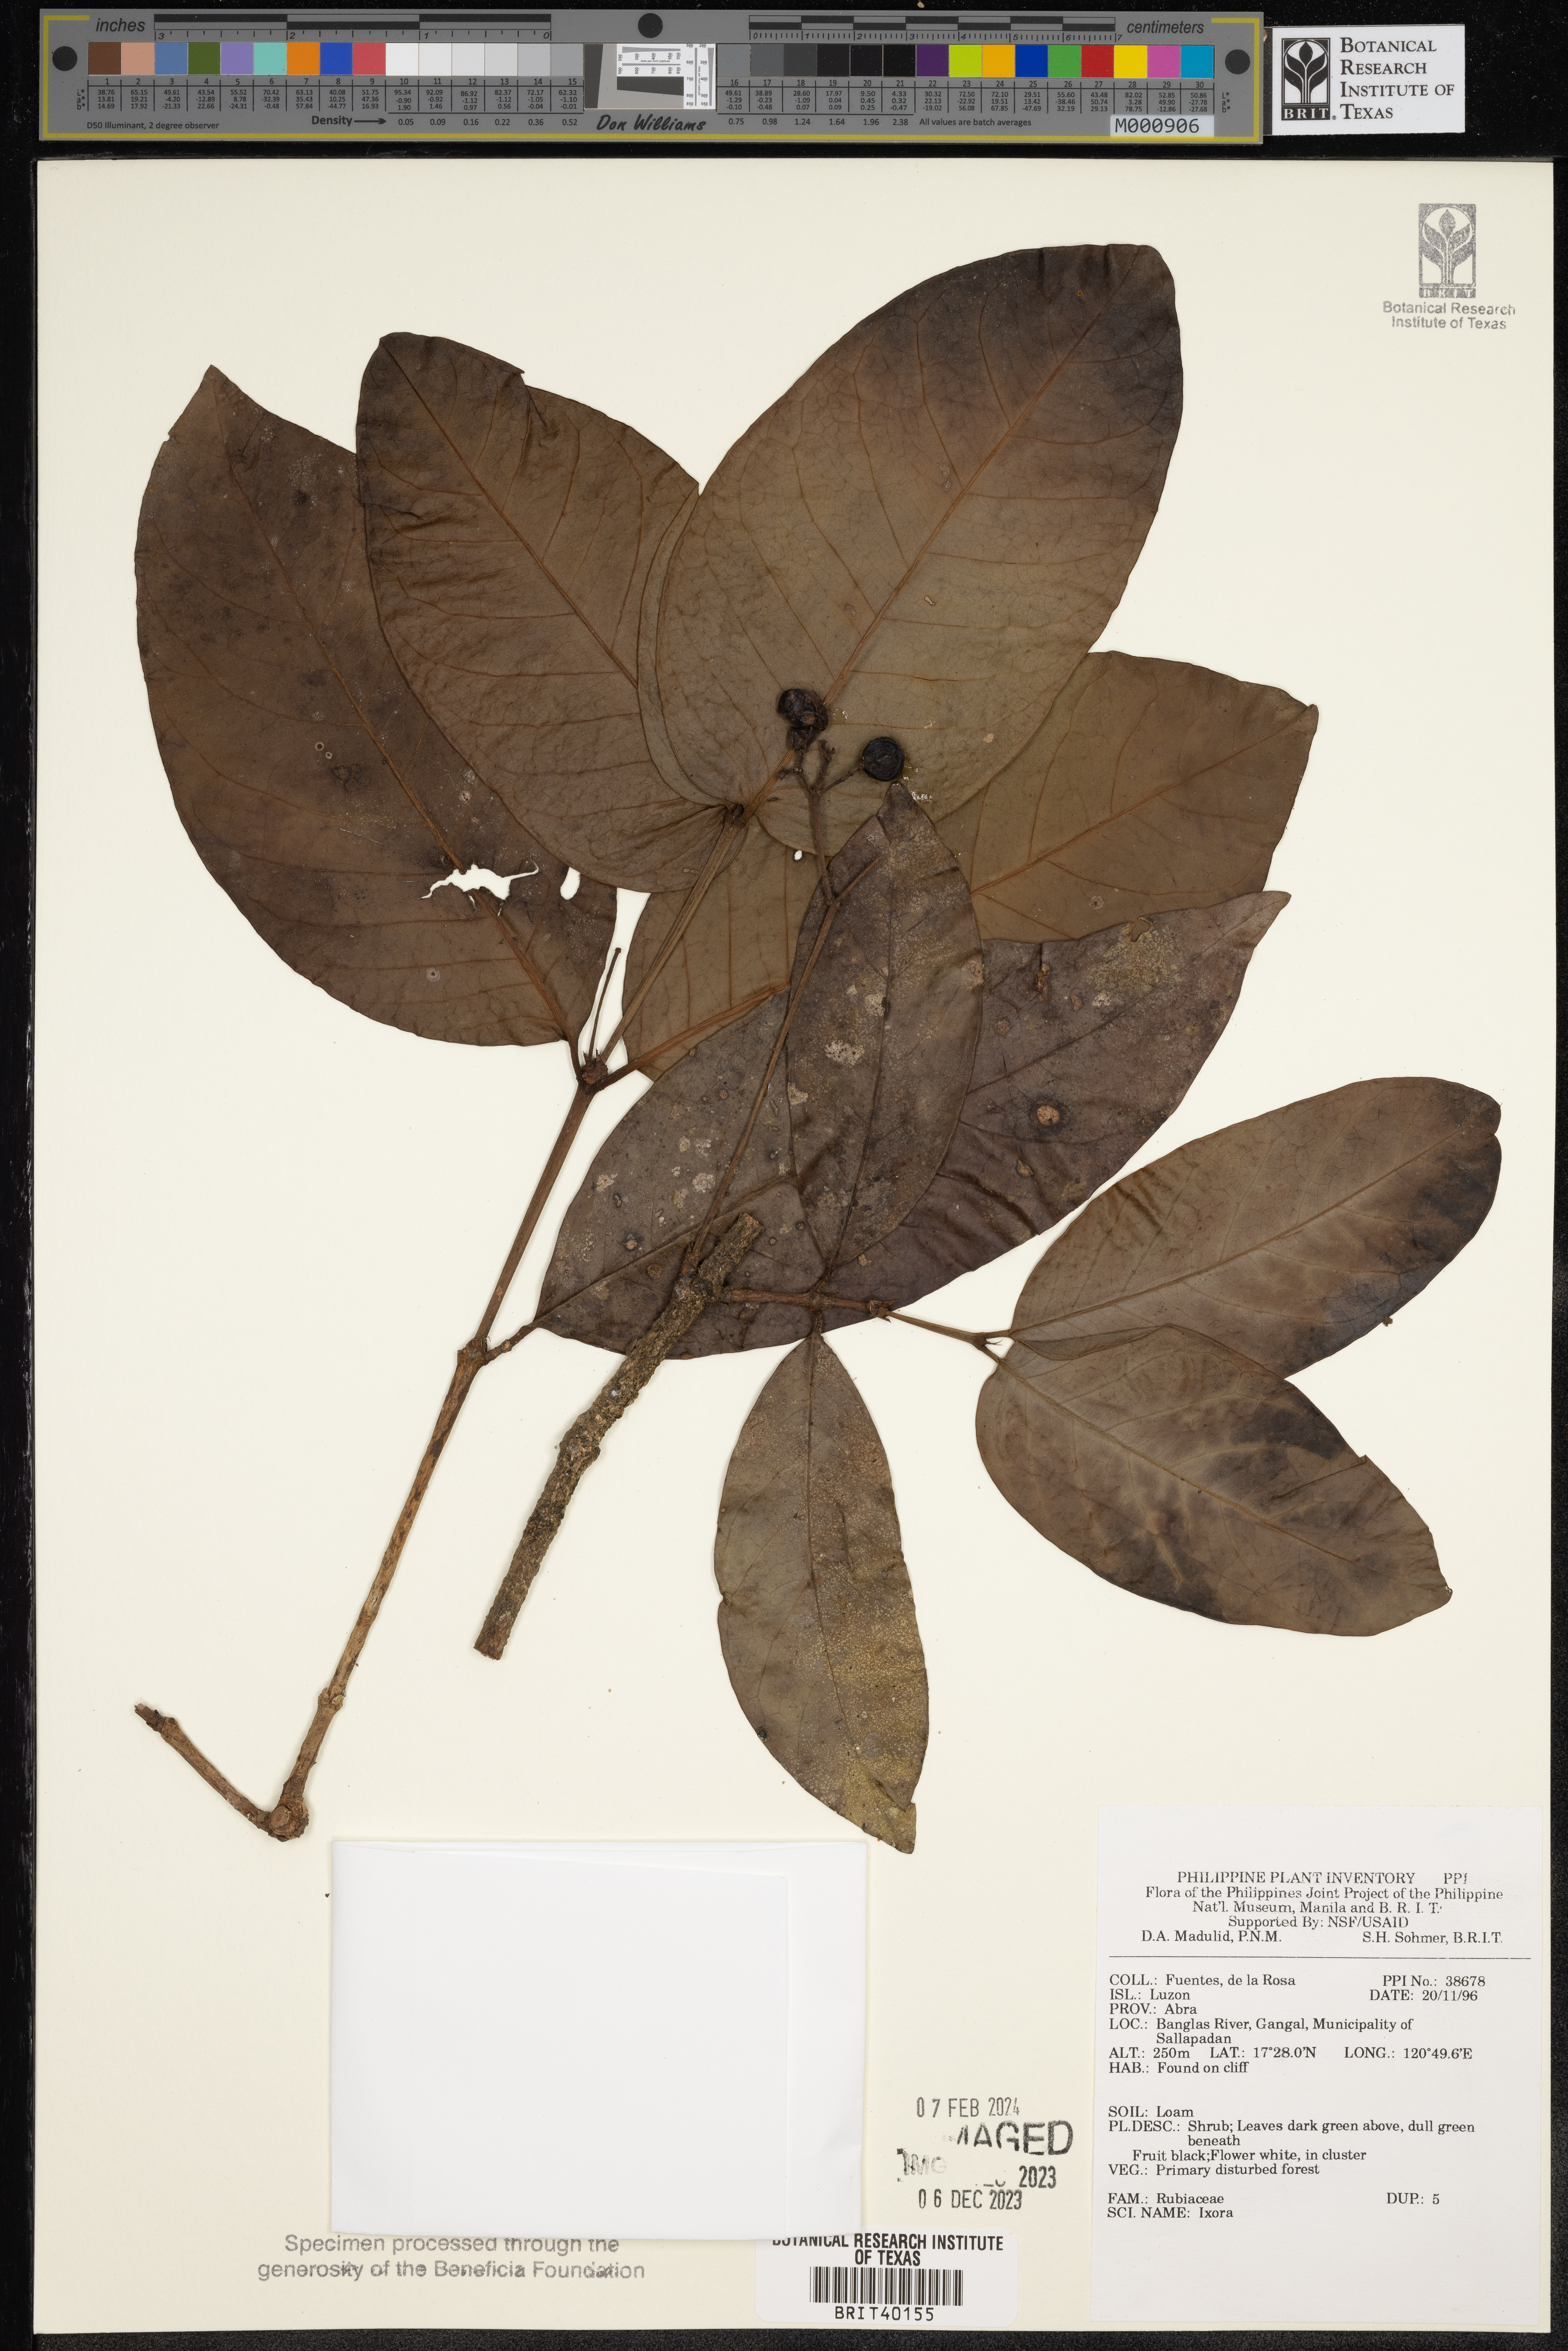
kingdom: Plantae
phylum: Tracheophyta
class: Magnoliopsida
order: Gentianales
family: Rubiaceae
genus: Ixora
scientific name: Ixora
